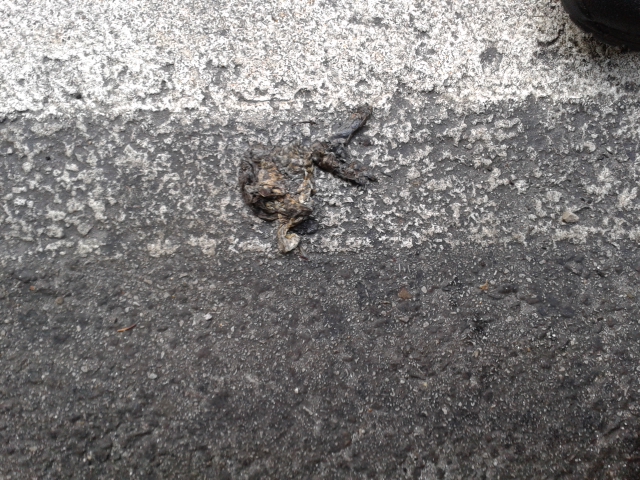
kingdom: Animalia
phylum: Chordata
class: Amphibia
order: Anura
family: Bufonidae
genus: Bufo
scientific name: Bufo bufo
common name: Common toad
